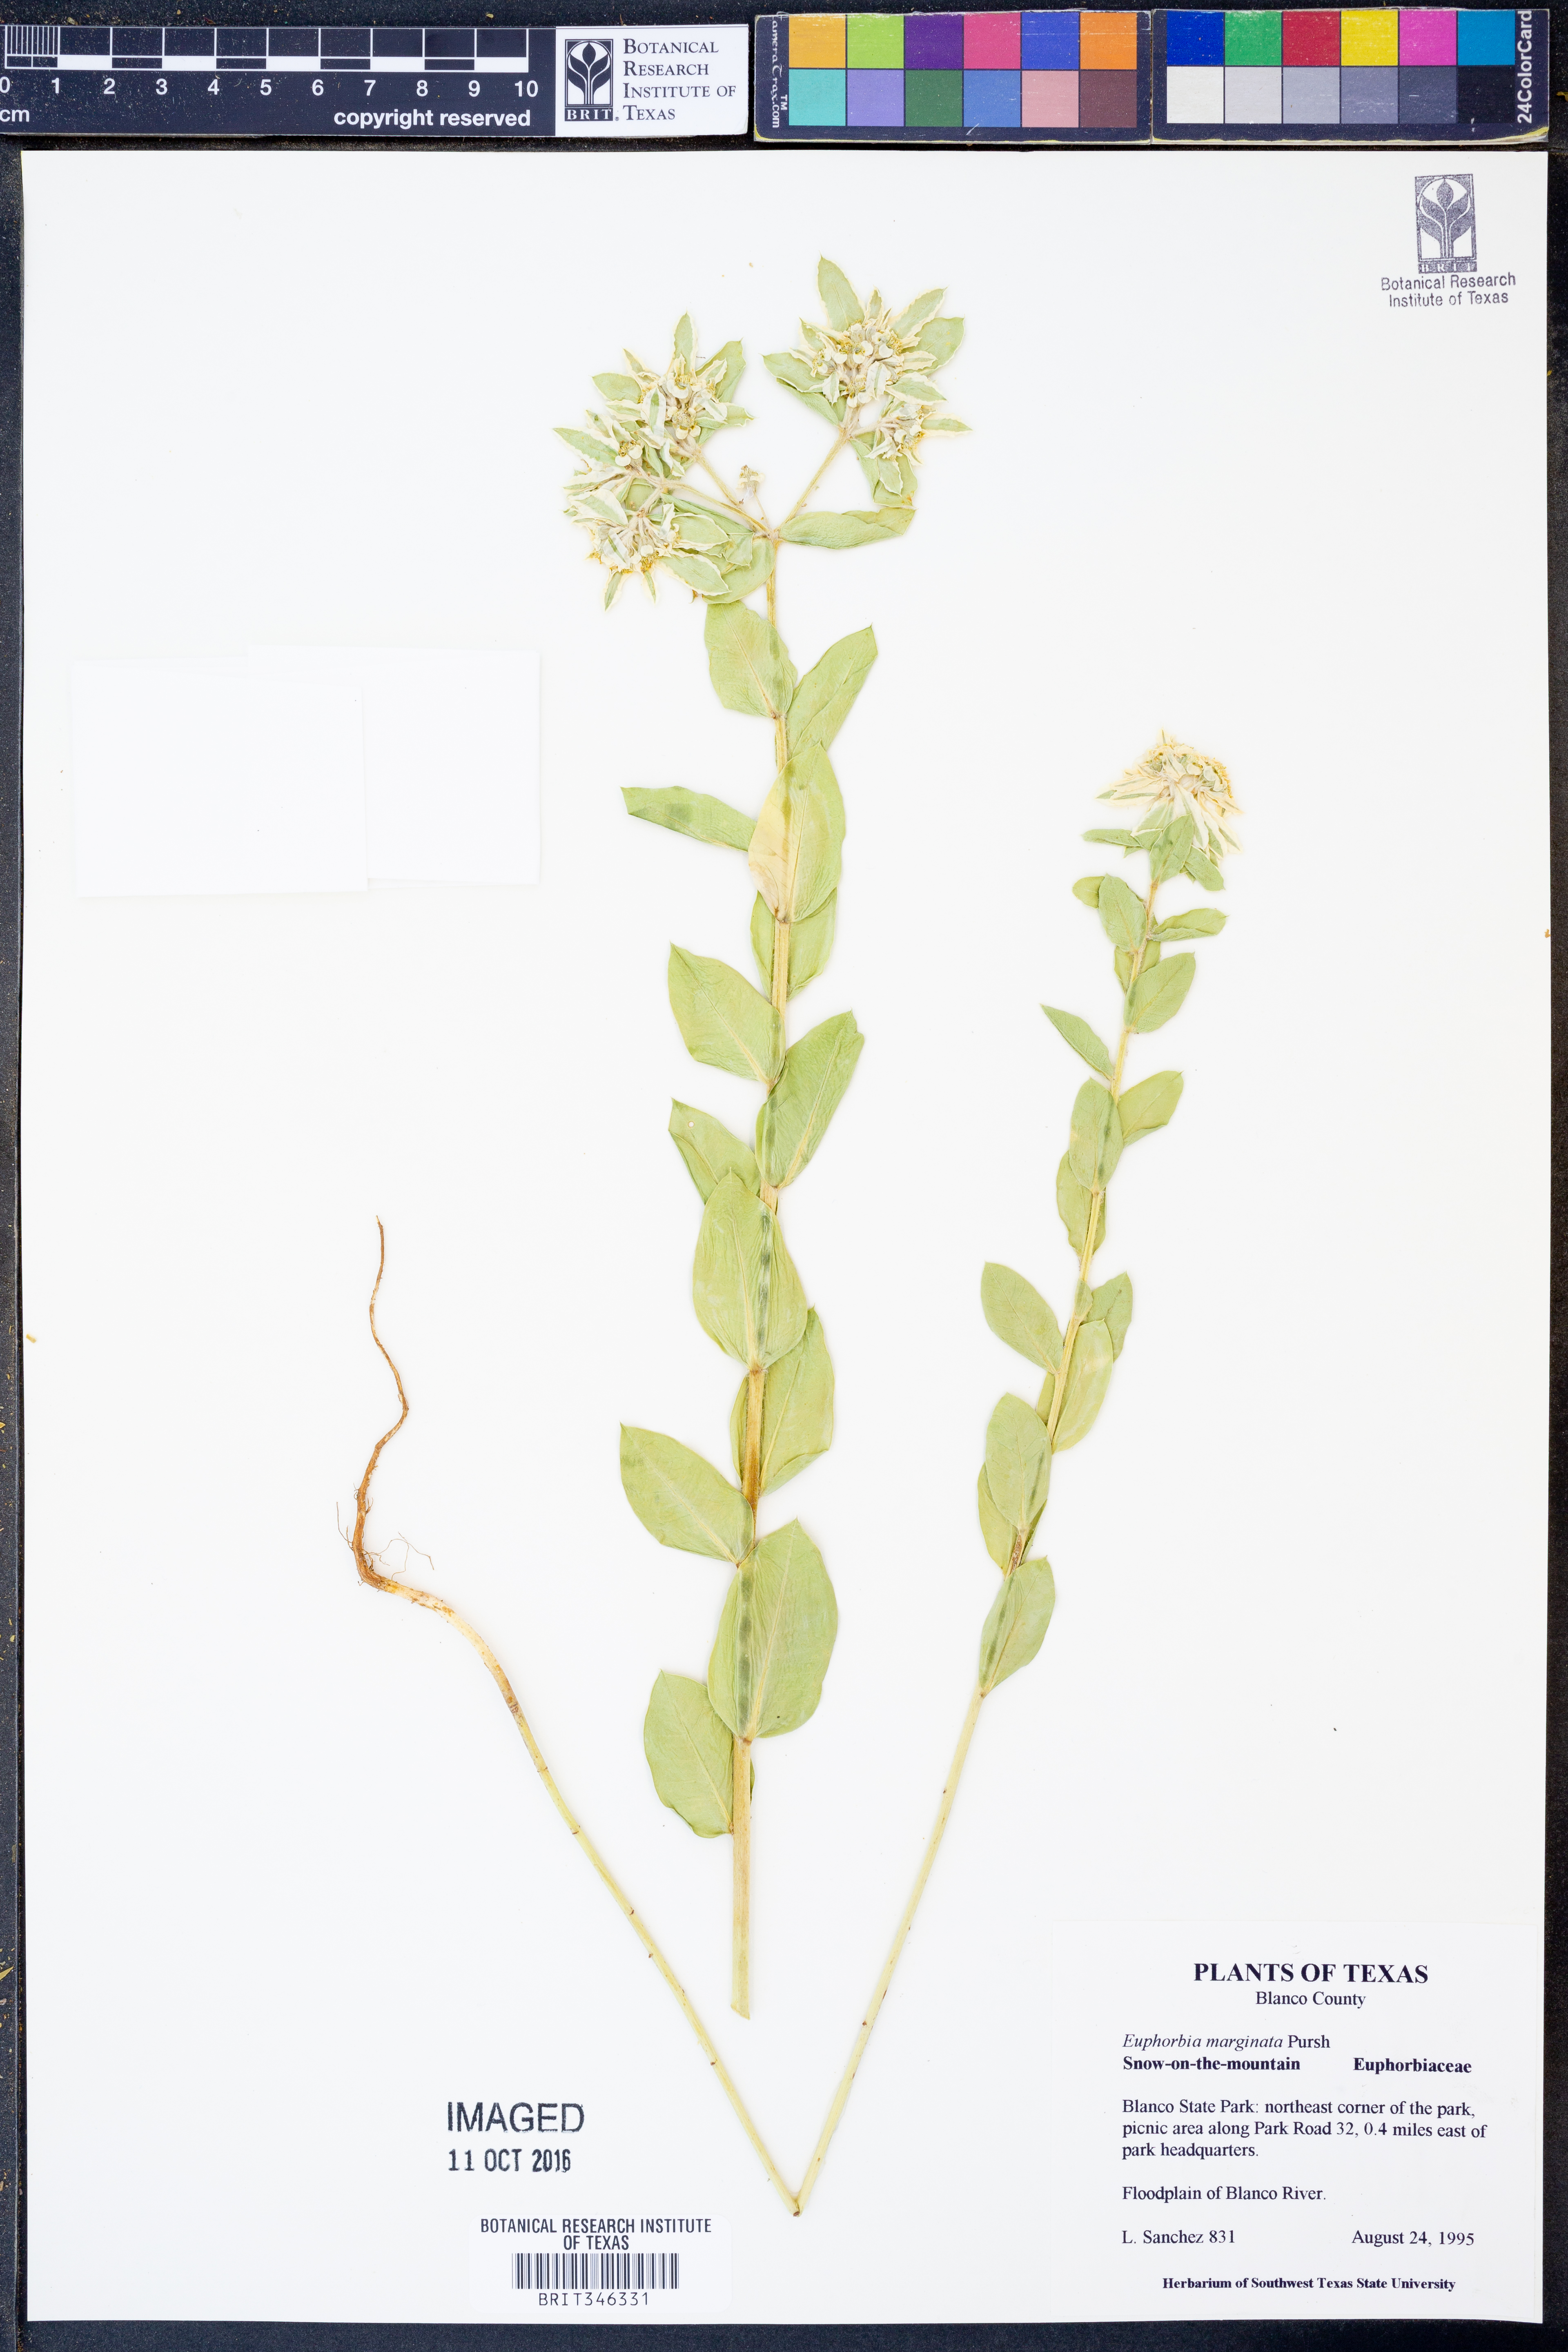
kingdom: Plantae
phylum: Tracheophyta
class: Magnoliopsida
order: Malpighiales
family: Euphorbiaceae
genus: Euphorbia
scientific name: Euphorbia marginata
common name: Ghostweed
